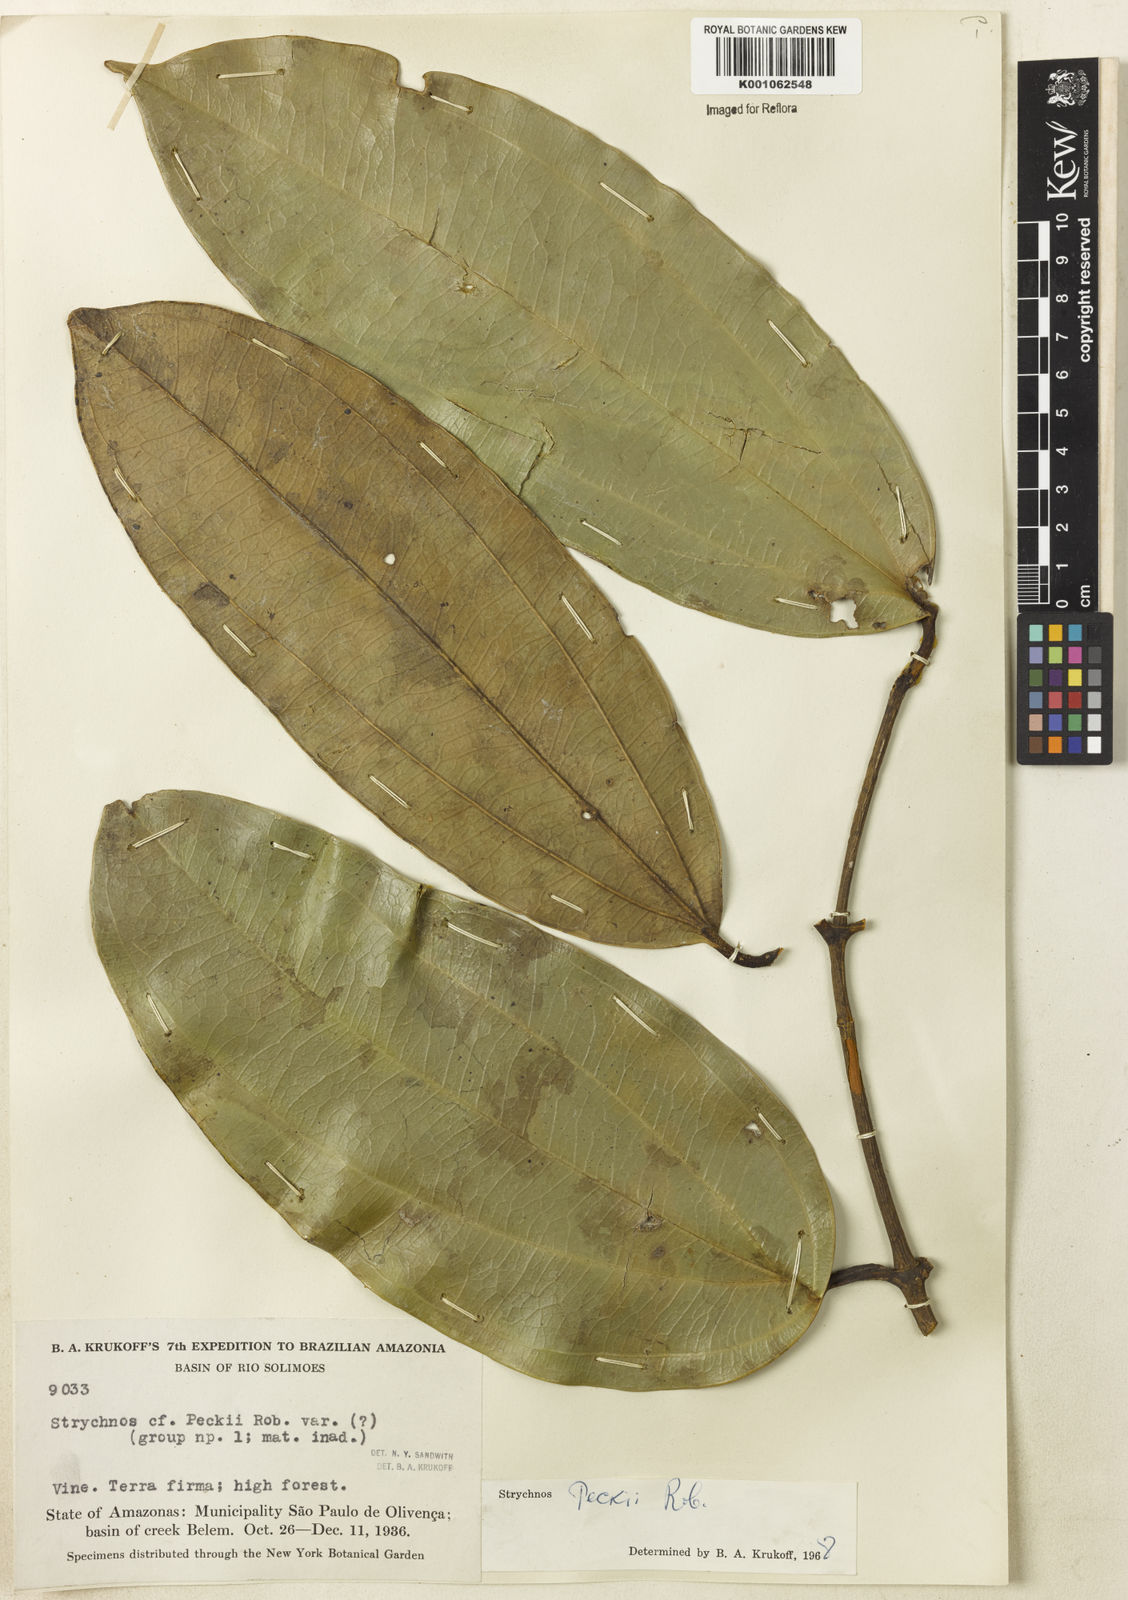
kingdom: Plantae
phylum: Tracheophyta
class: Magnoliopsida
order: Gentianales
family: Loganiaceae
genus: Strychnos
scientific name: Strychnos peckii
